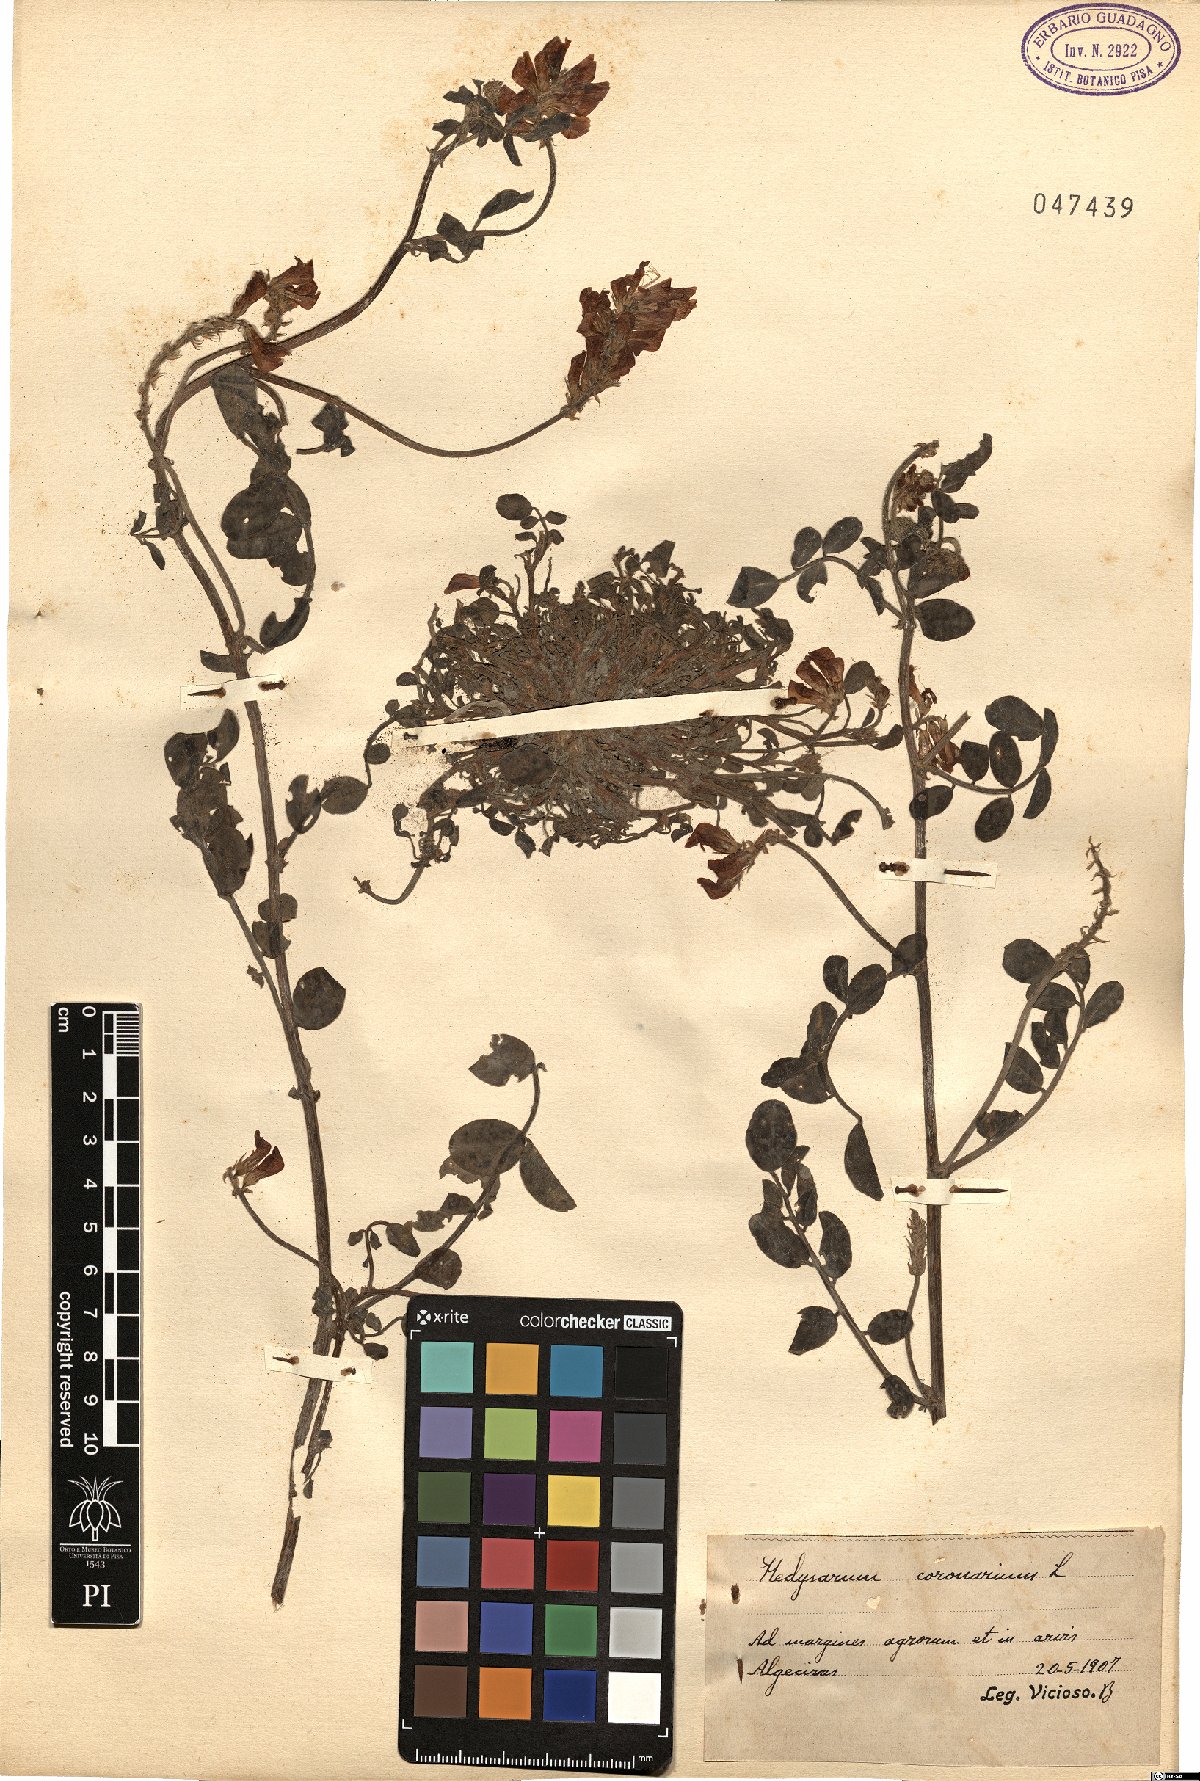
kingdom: Plantae
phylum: Tracheophyta
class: Magnoliopsida
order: Fabales
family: Fabaceae
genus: Sulla
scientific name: Sulla coronaria
